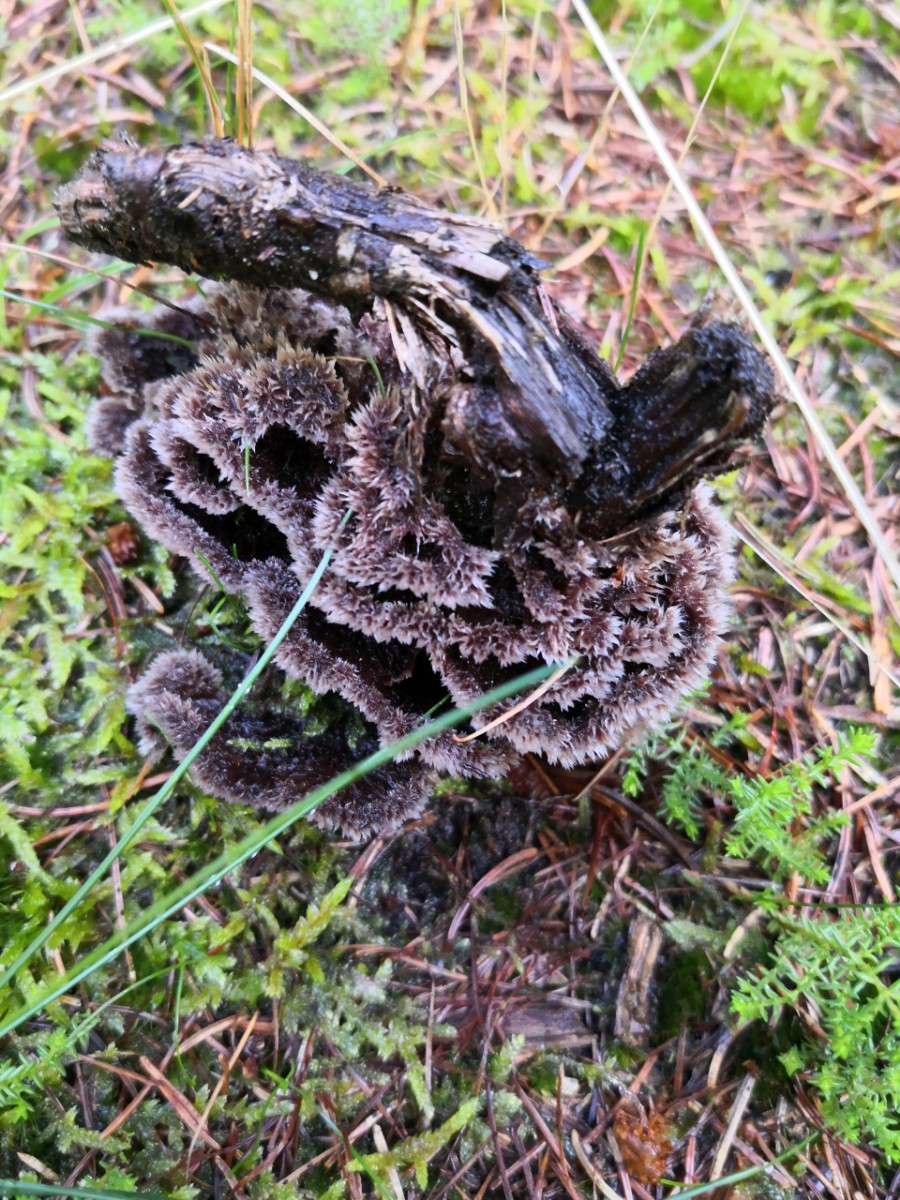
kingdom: Fungi
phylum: Basidiomycota
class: Agaricomycetes
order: Thelephorales
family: Thelephoraceae
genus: Thelephora
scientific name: Thelephora terrestris
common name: fliget frynsesvamp
